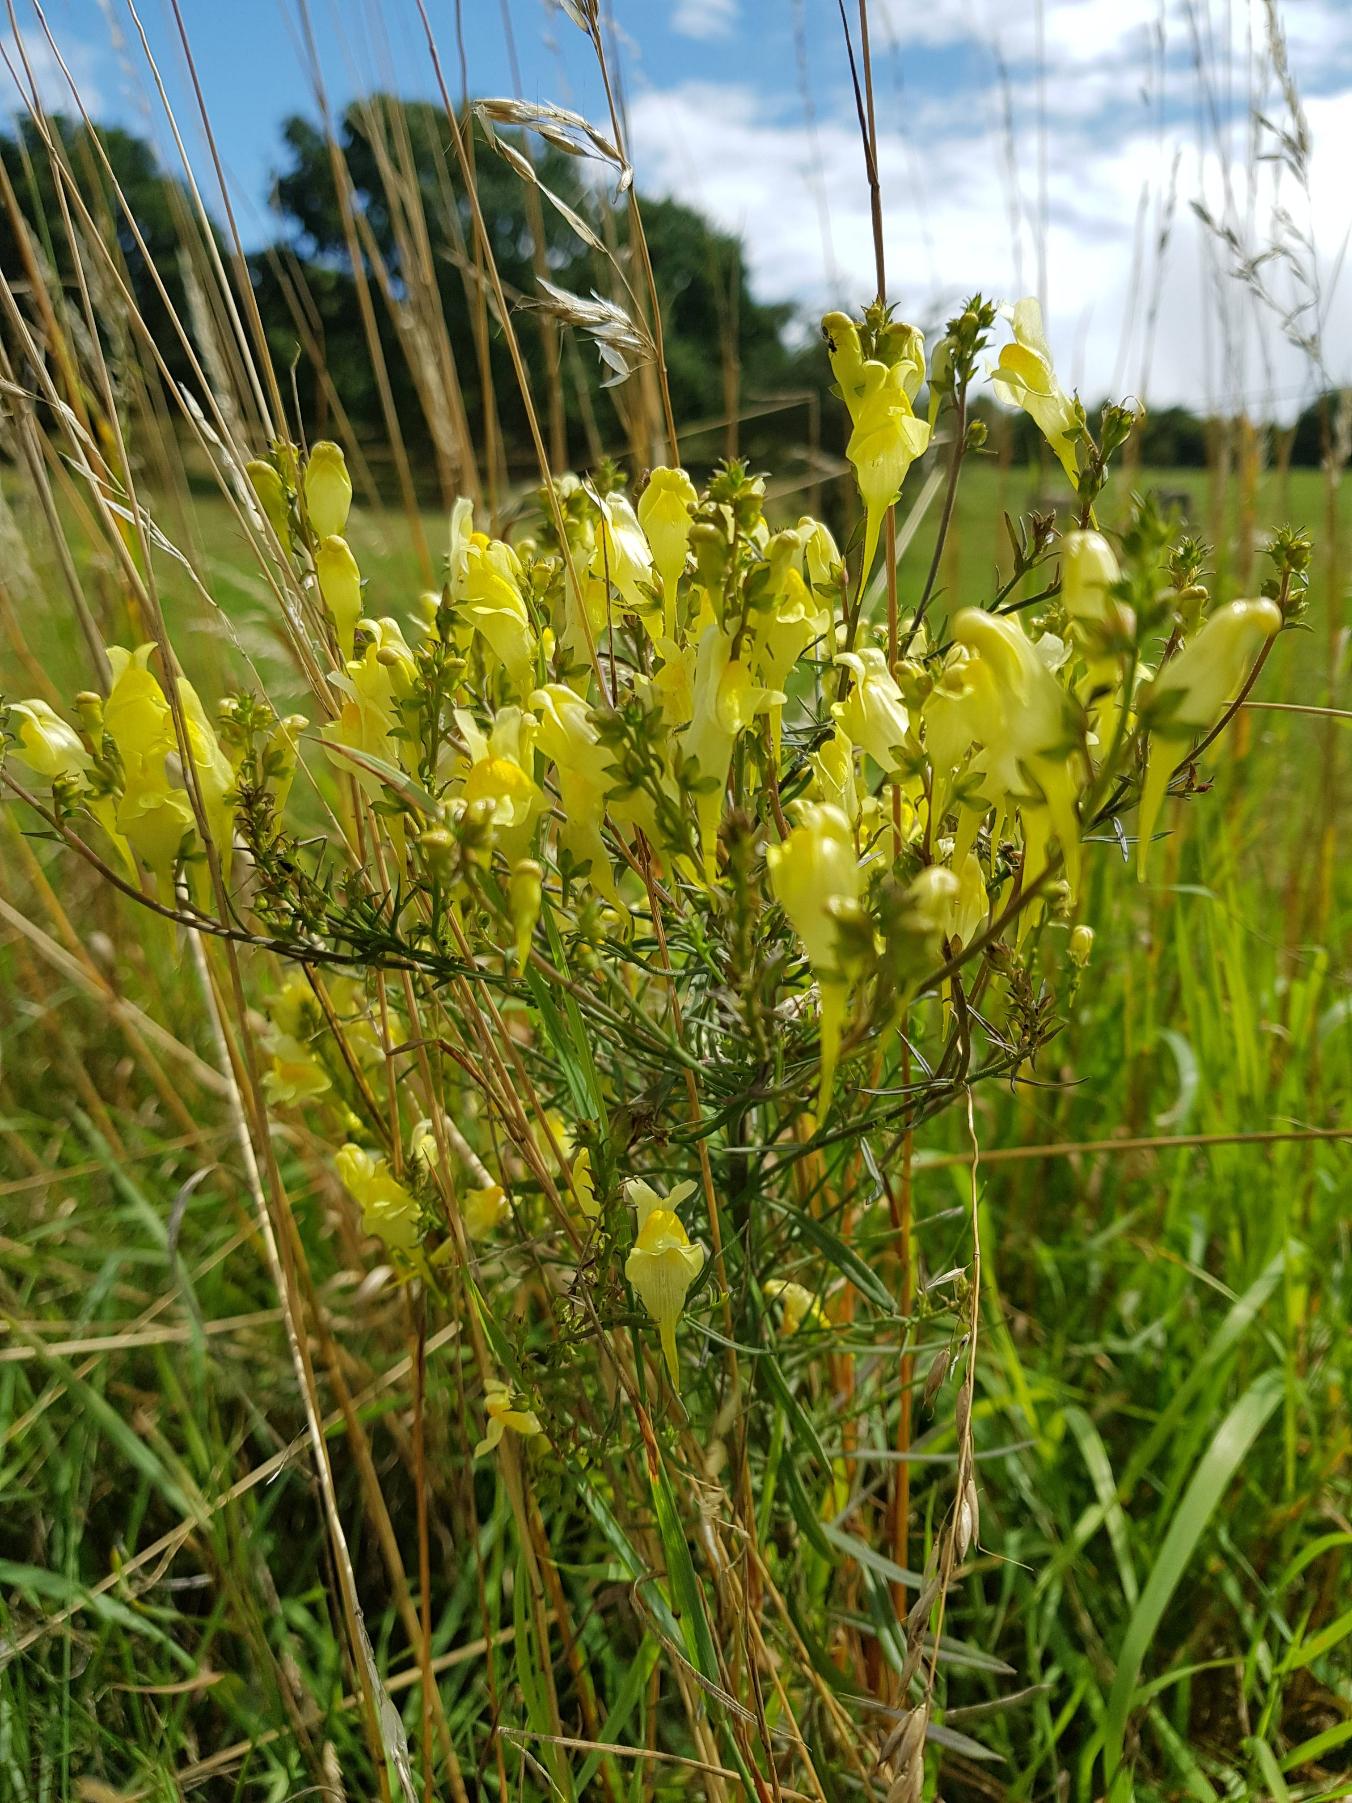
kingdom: Plantae
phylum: Tracheophyta
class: Magnoliopsida
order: Lamiales
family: Plantaginaceae
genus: Linaria
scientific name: Linaria vulgaris
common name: Almindelig torskemund
